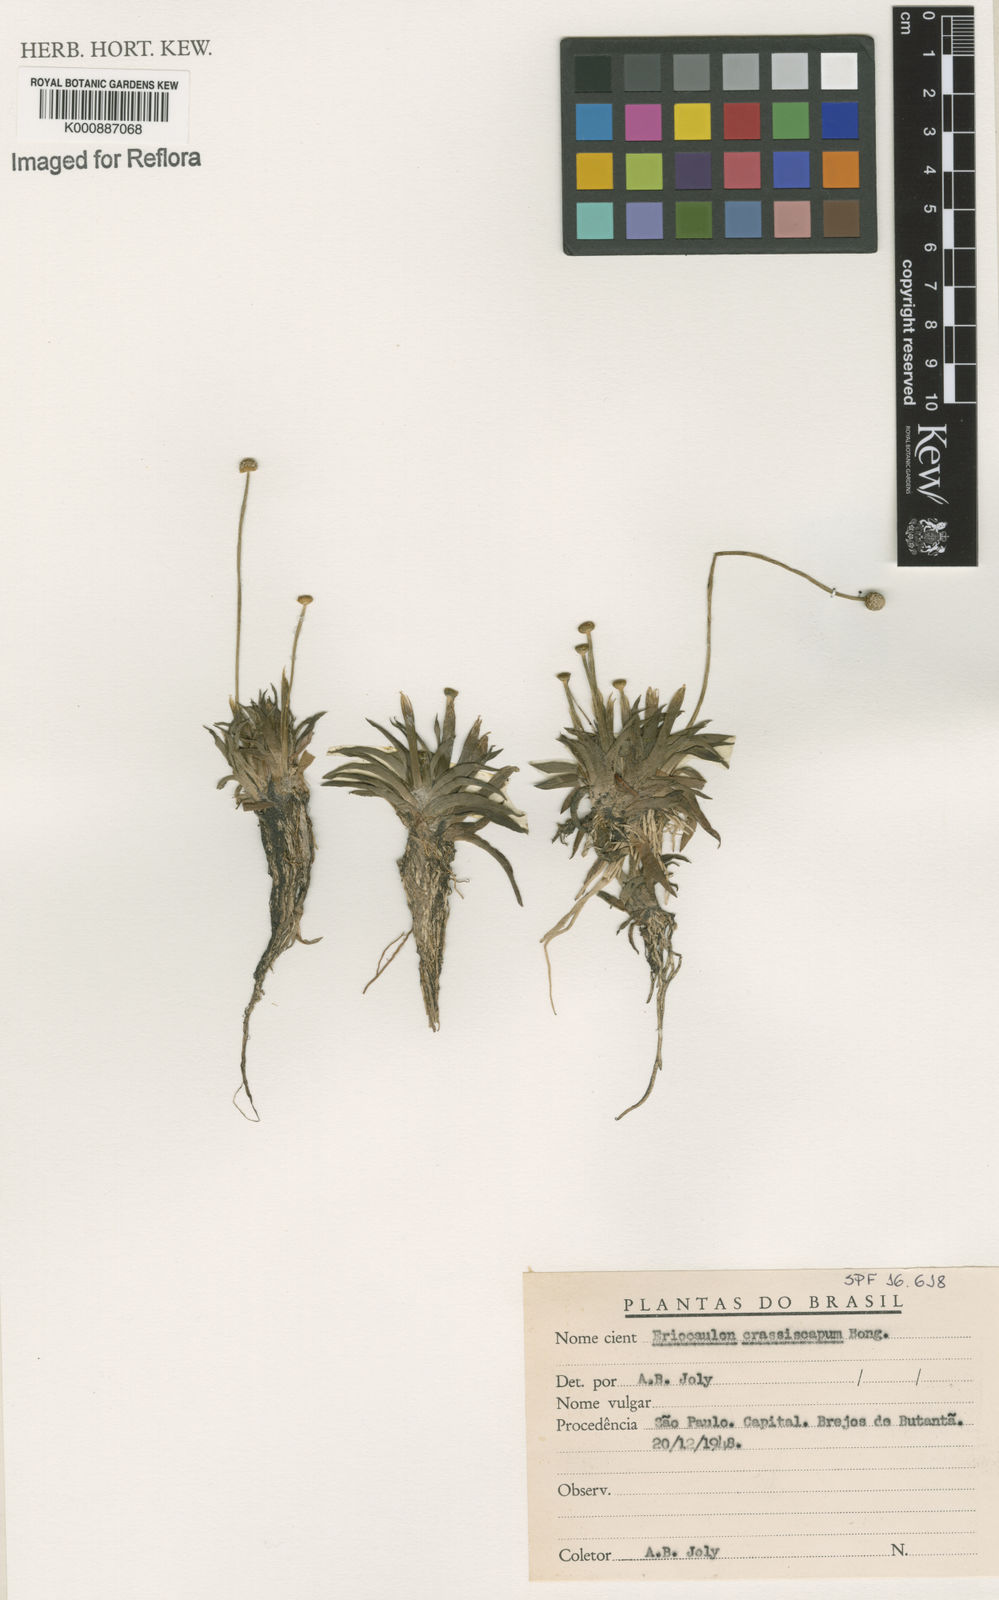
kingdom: Plantae
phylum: Tracheophyta
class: Liliopsida
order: Poales
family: Eriocaulaceae
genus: Eriocaulon
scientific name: Eriocaulon crassiscapum
